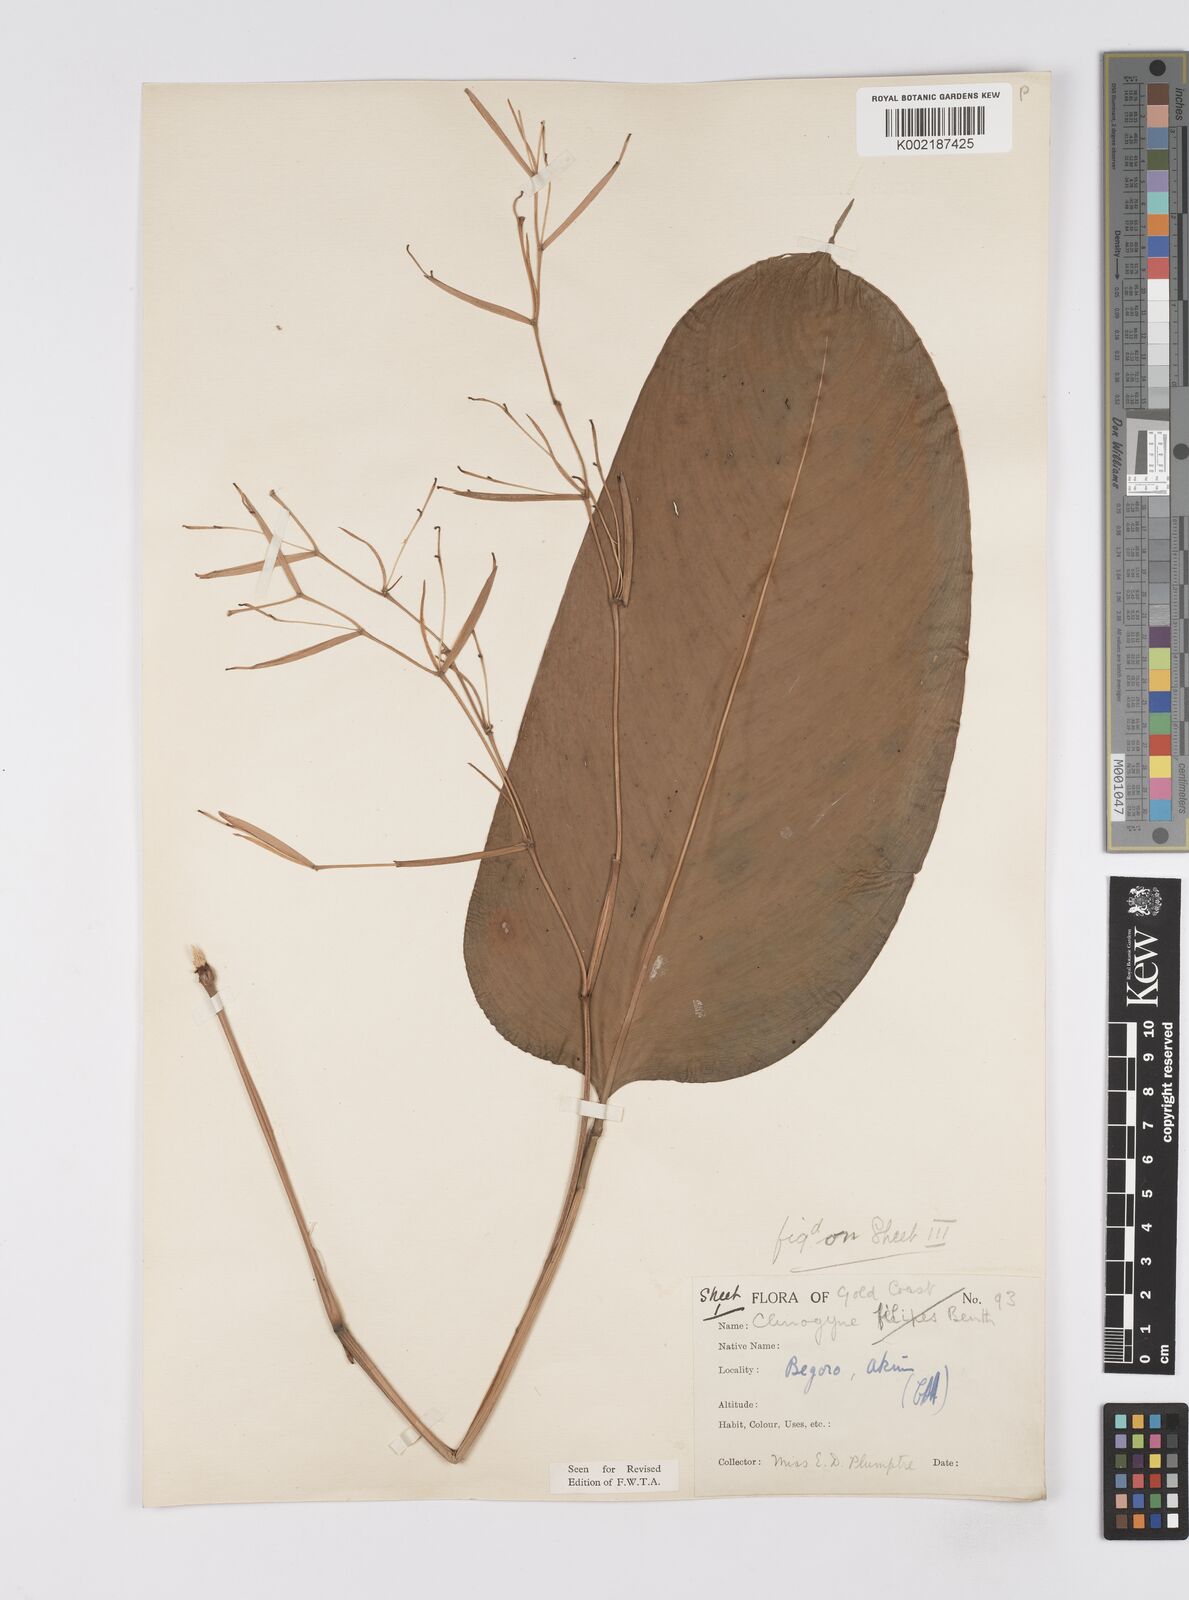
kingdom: Plantae
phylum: Tracheophyta
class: Liliopsida
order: Zingiberales
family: Marantaceae
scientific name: Marantaceae
